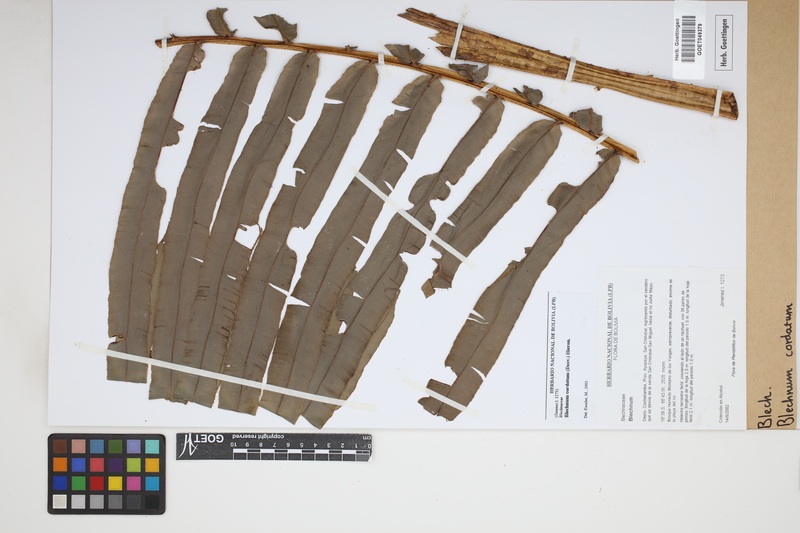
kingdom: Plantae
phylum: Tracheophyta
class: Polypodiopsida
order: Polypodiales
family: Blechnaceae
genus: Parablechnum
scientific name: Parablechnum cordatum
